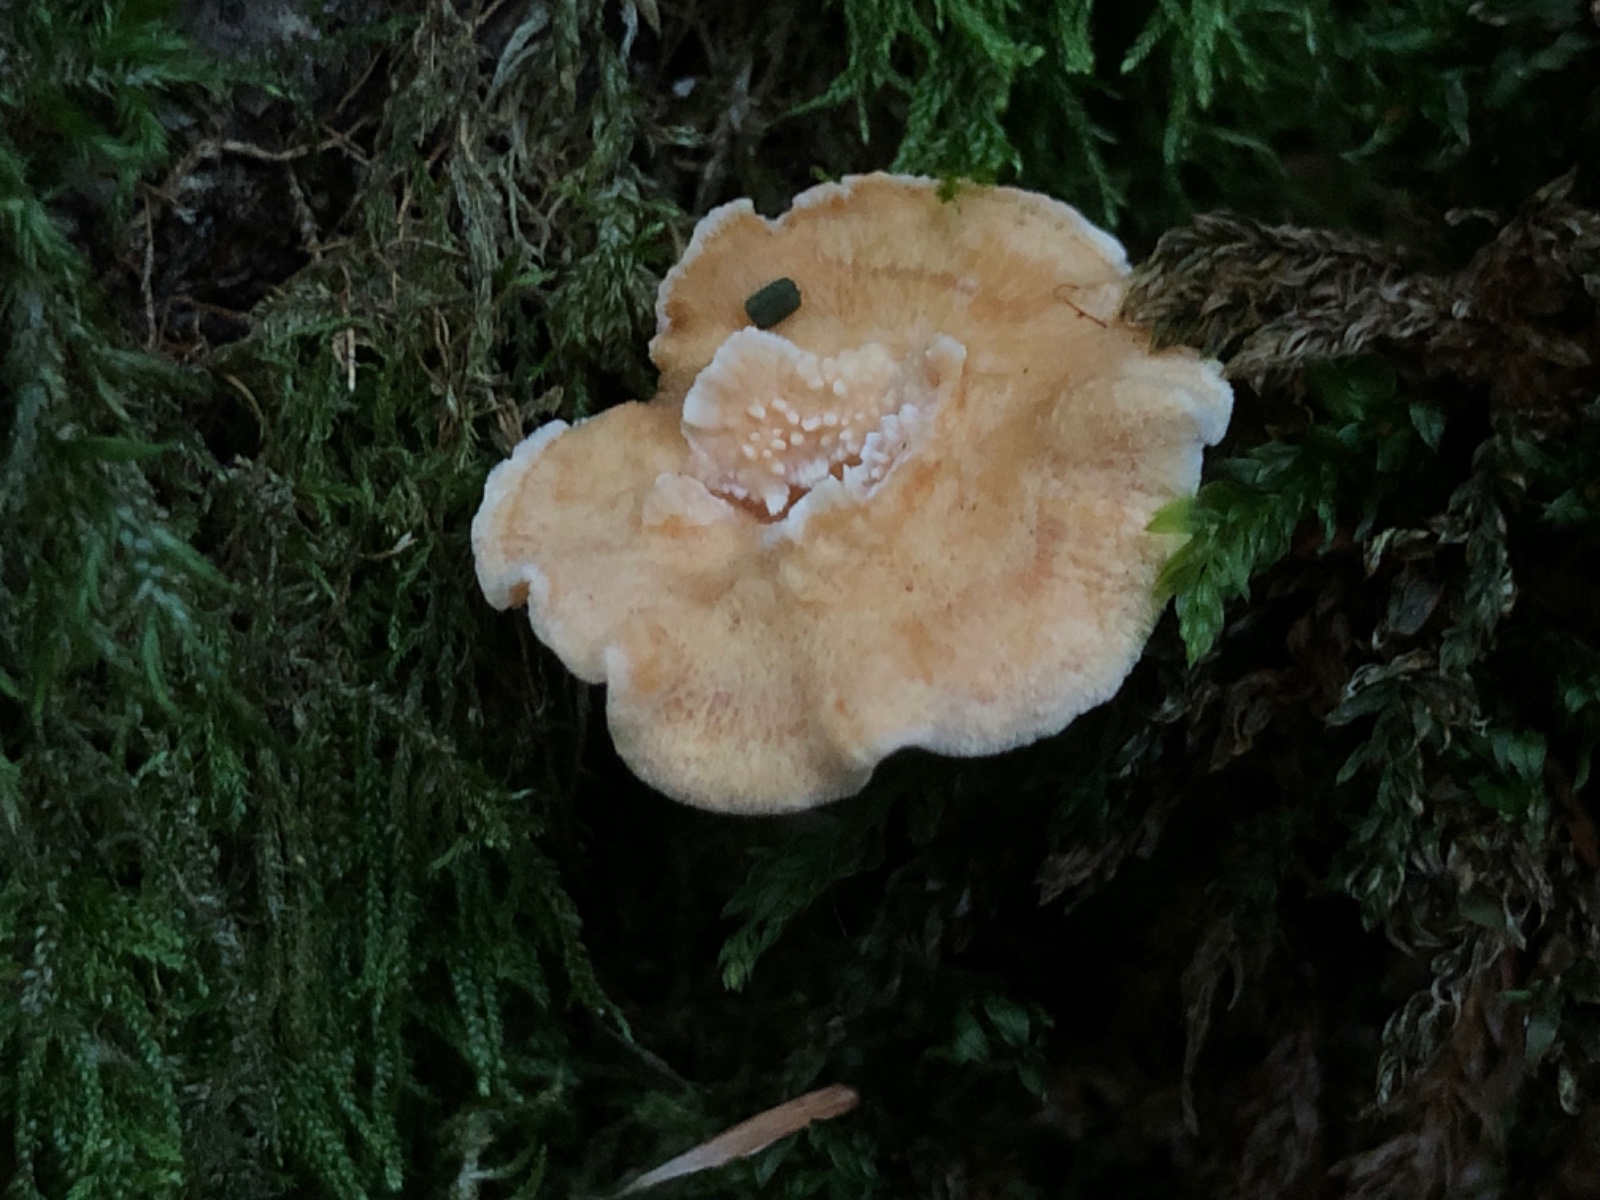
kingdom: Fungi
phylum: Basidiomycota
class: Agaricomycetes
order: Cantharellales
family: Hydnaceae
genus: Hydnum
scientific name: Hydnum
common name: pigsvamp
